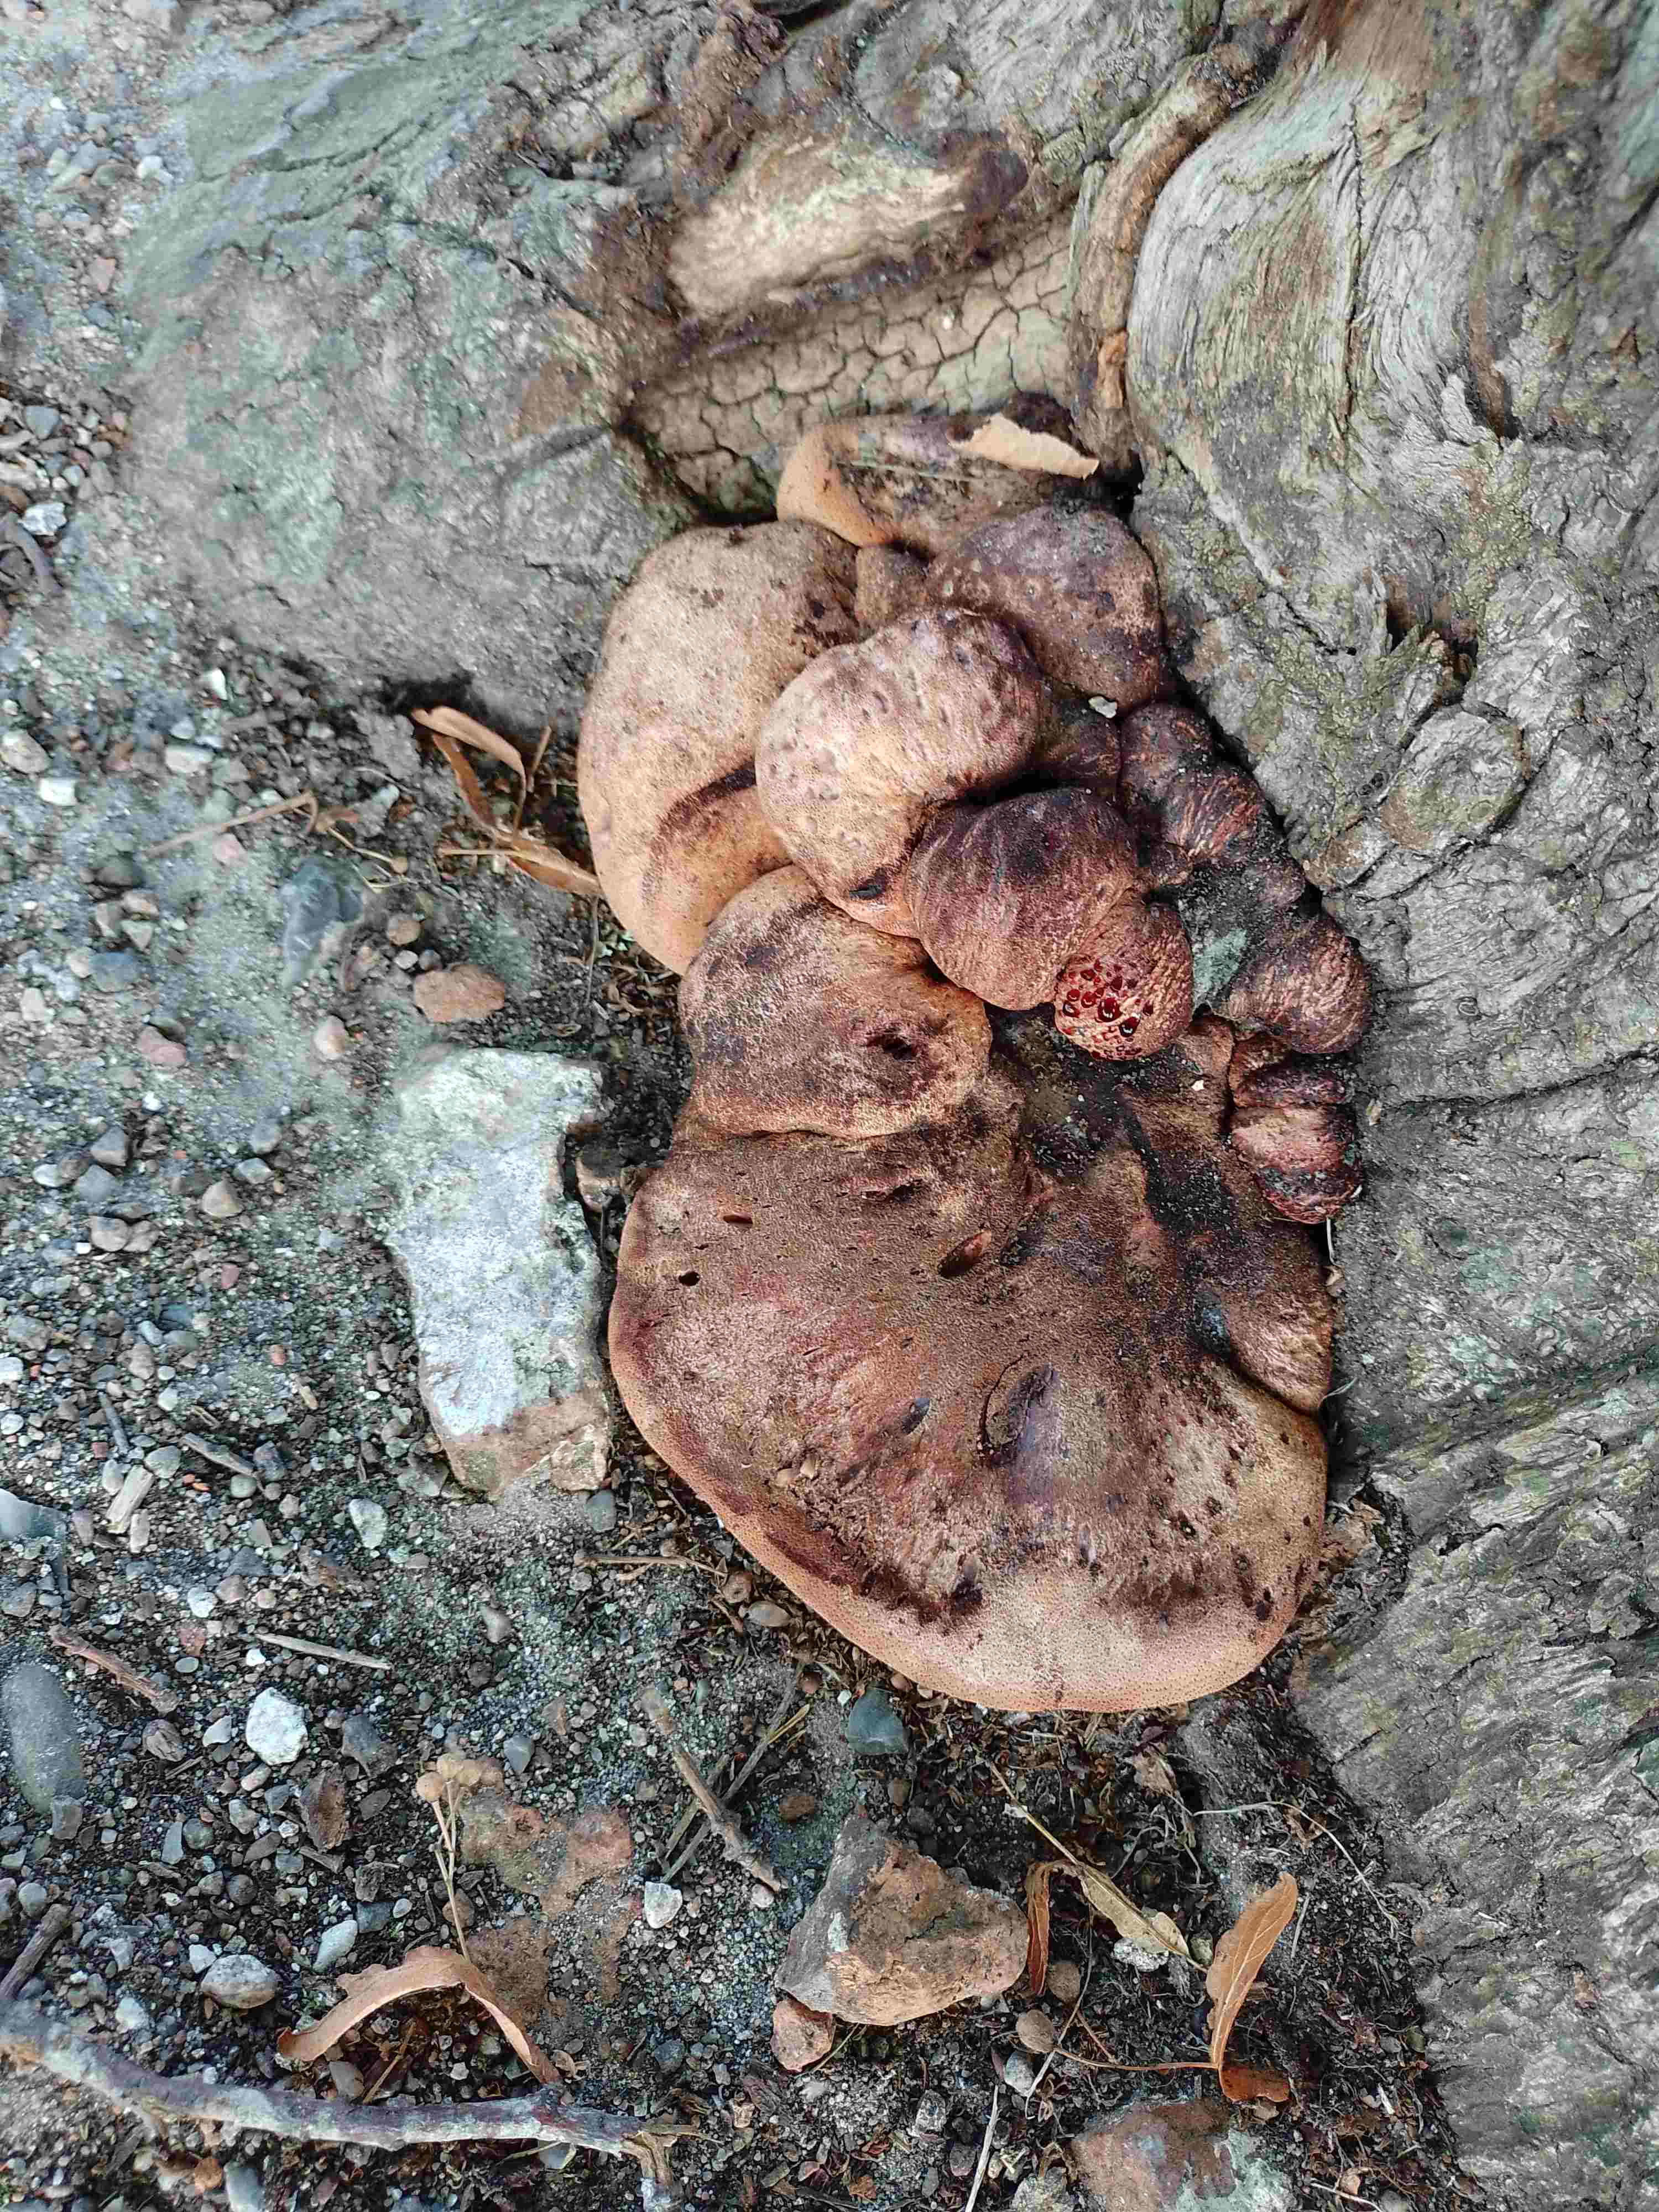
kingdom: Fungi
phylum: Basidiomycota
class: Agaricomycetes
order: Agaricales
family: Fistulinaceae
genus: Fistulina
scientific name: Fistulina hepatica
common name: oksetunge
